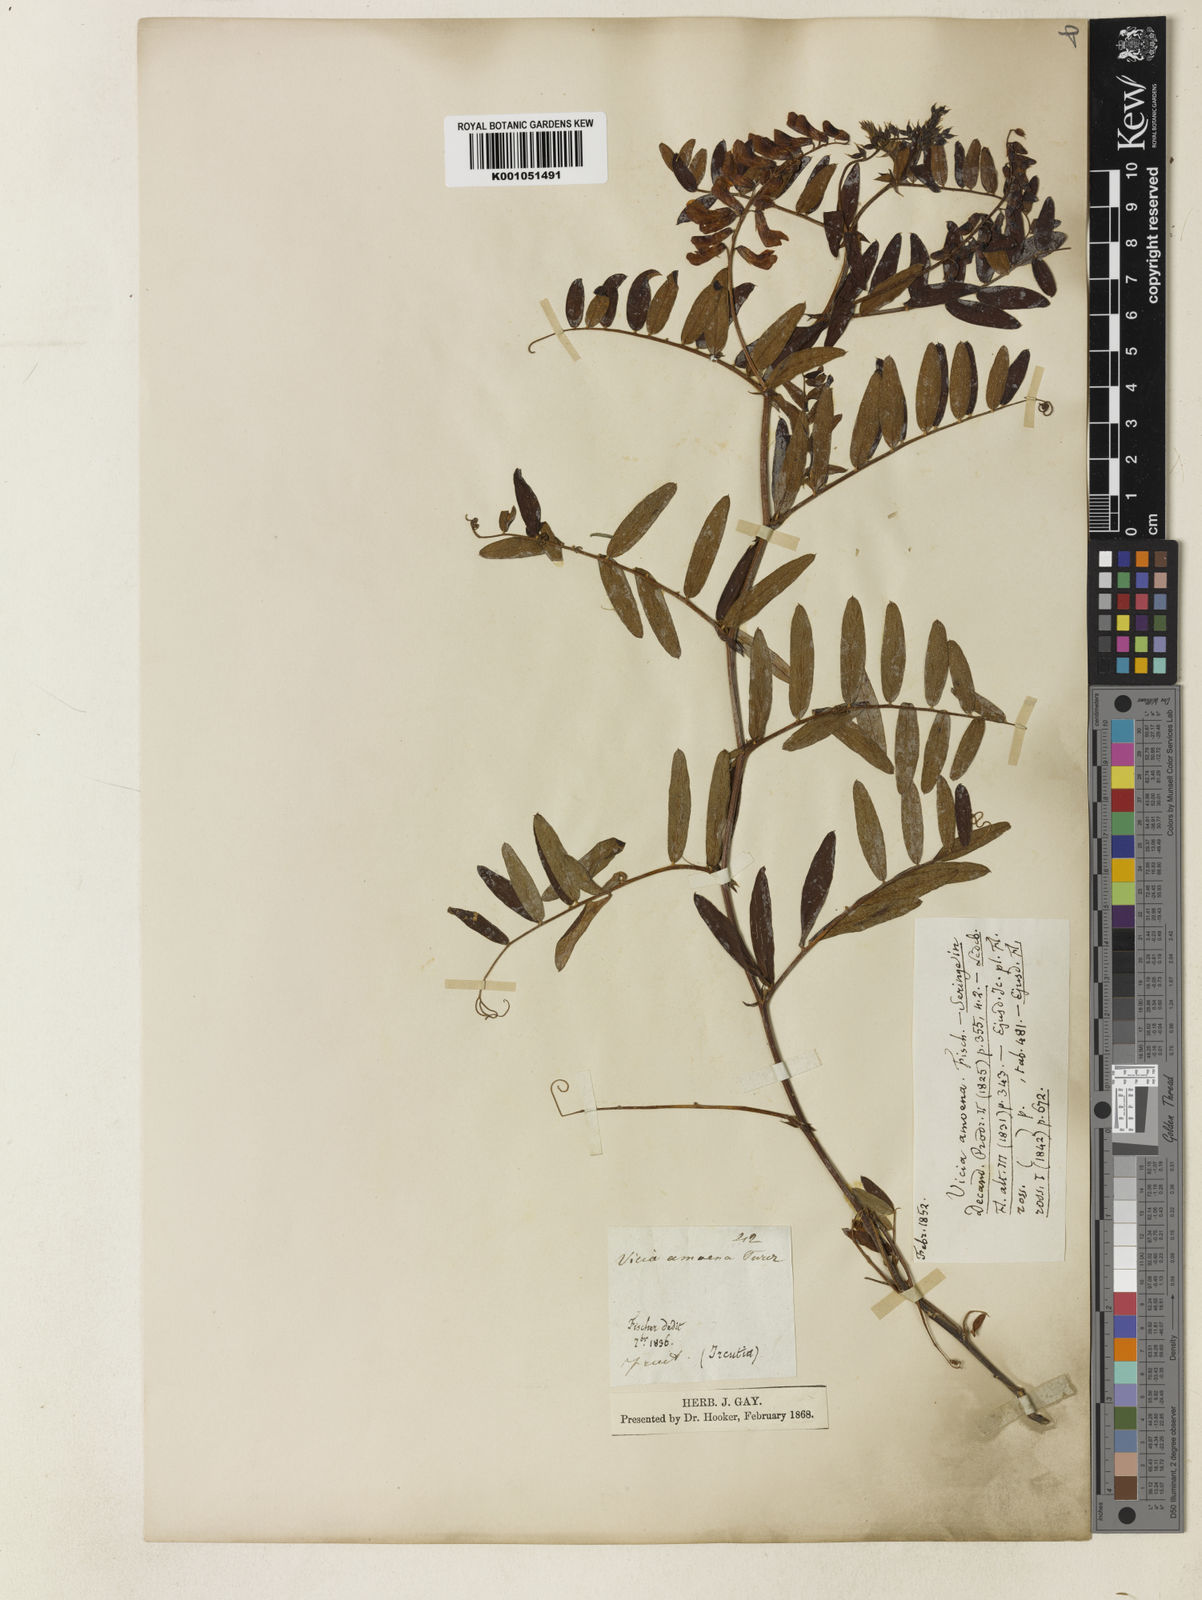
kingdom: Plantae
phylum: Tracheophyta
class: Magnoliopsida
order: Fabales
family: Fabaceae
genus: Vicia
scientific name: Vicia amoena
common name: Cheder ebs
